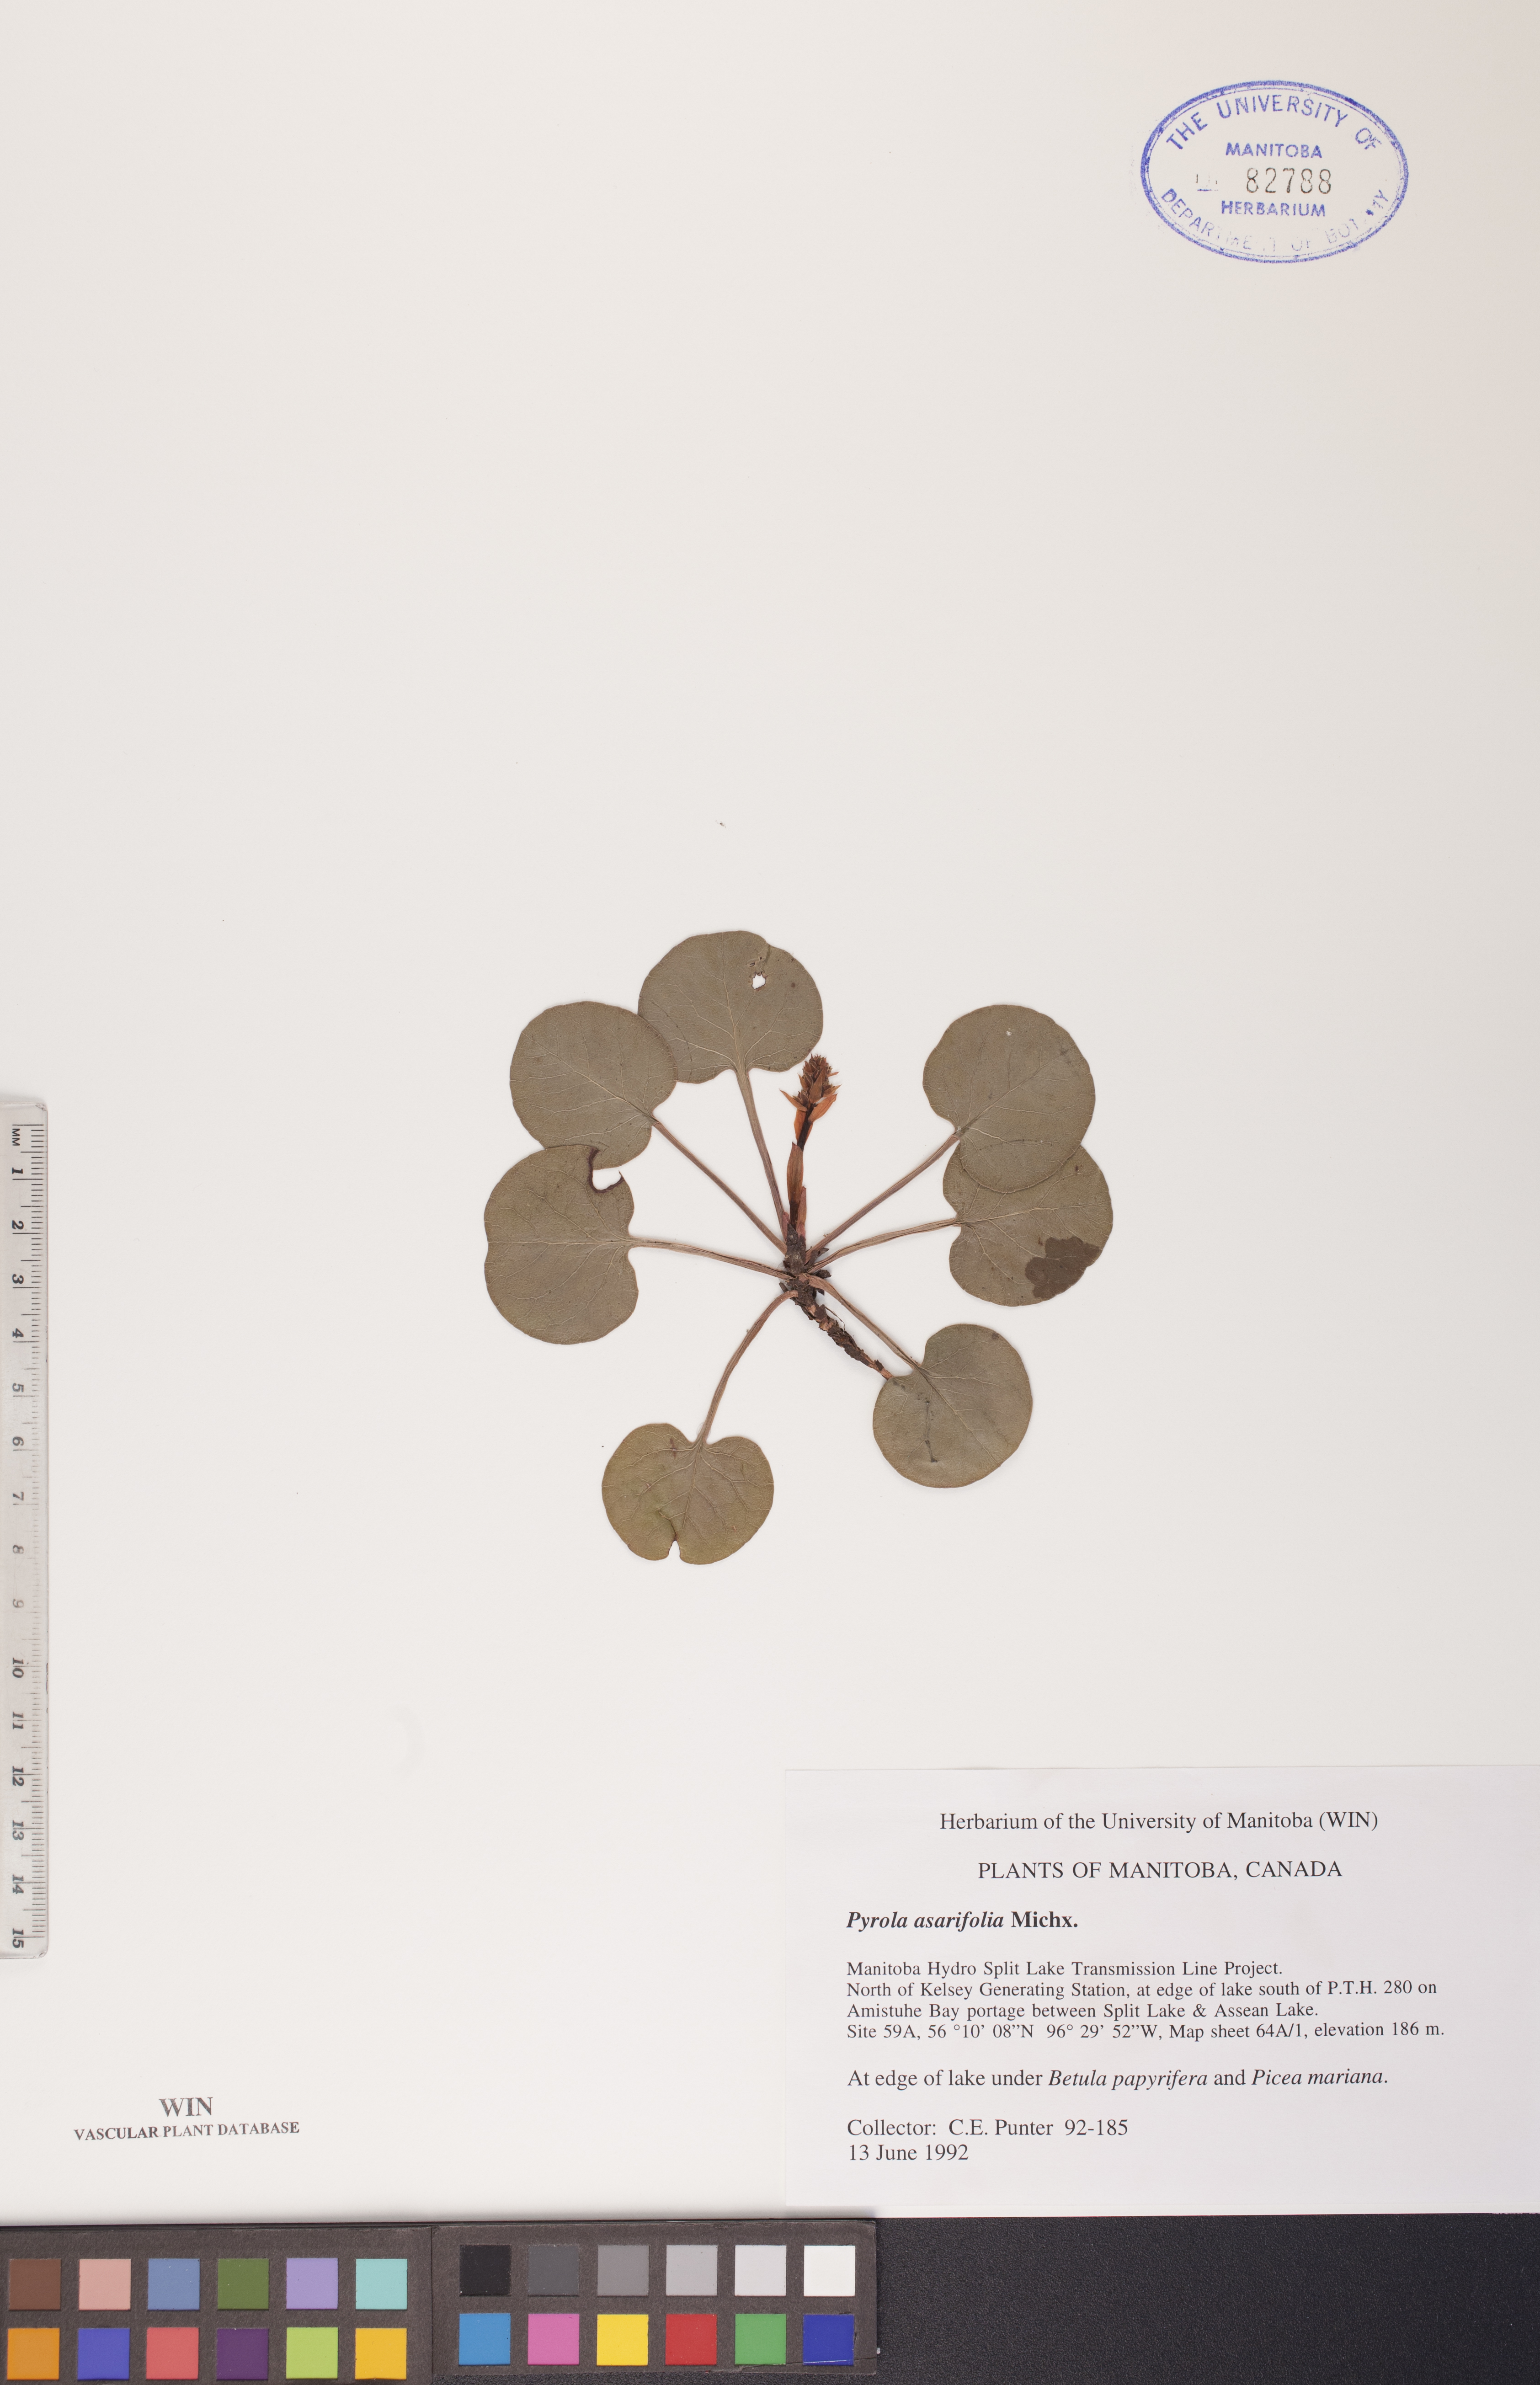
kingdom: Plantae
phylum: Tracheophyta
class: Magnoliopsida
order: Ericales
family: Ericaceae
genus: Pyrola
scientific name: Pyrola asarifolia
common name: Bog wintergreen
